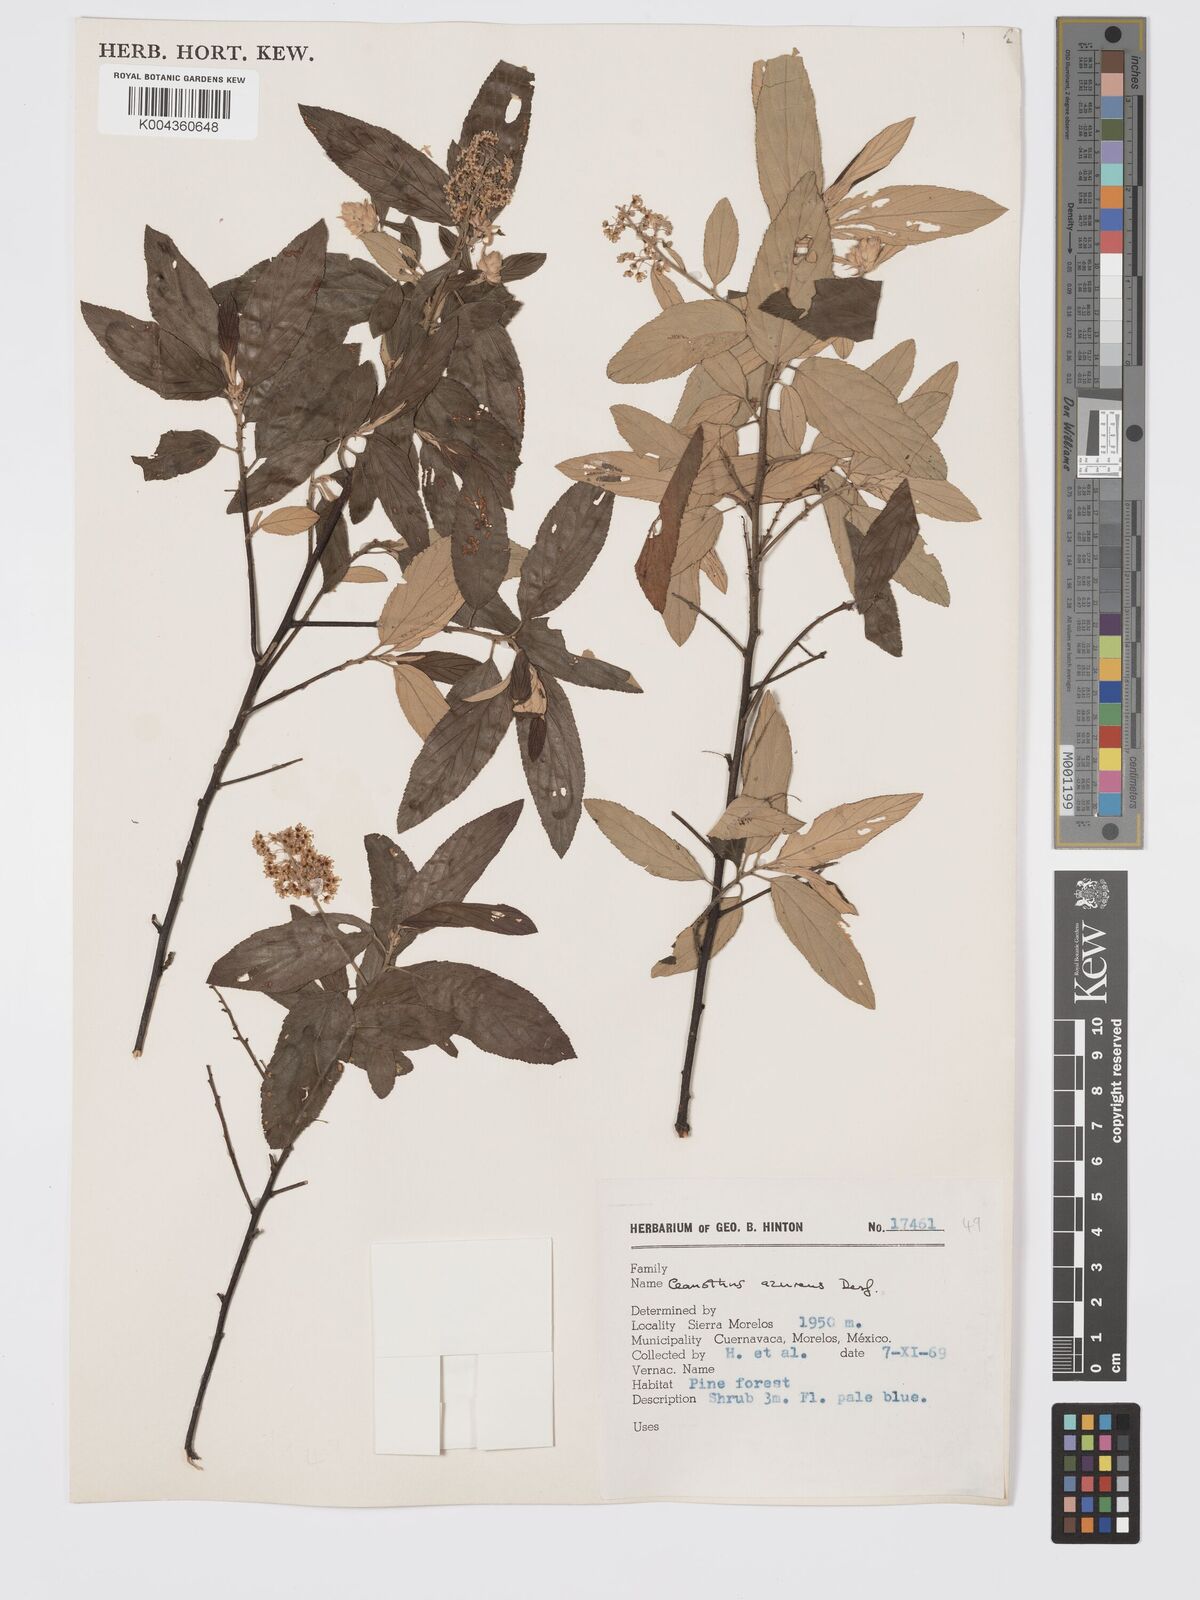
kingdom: Plantae
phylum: Tracheophyta
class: Magnoliopsida
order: Rosales
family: Rhamnaceae
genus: Ceanothus
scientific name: Ceanothus caeruleus
